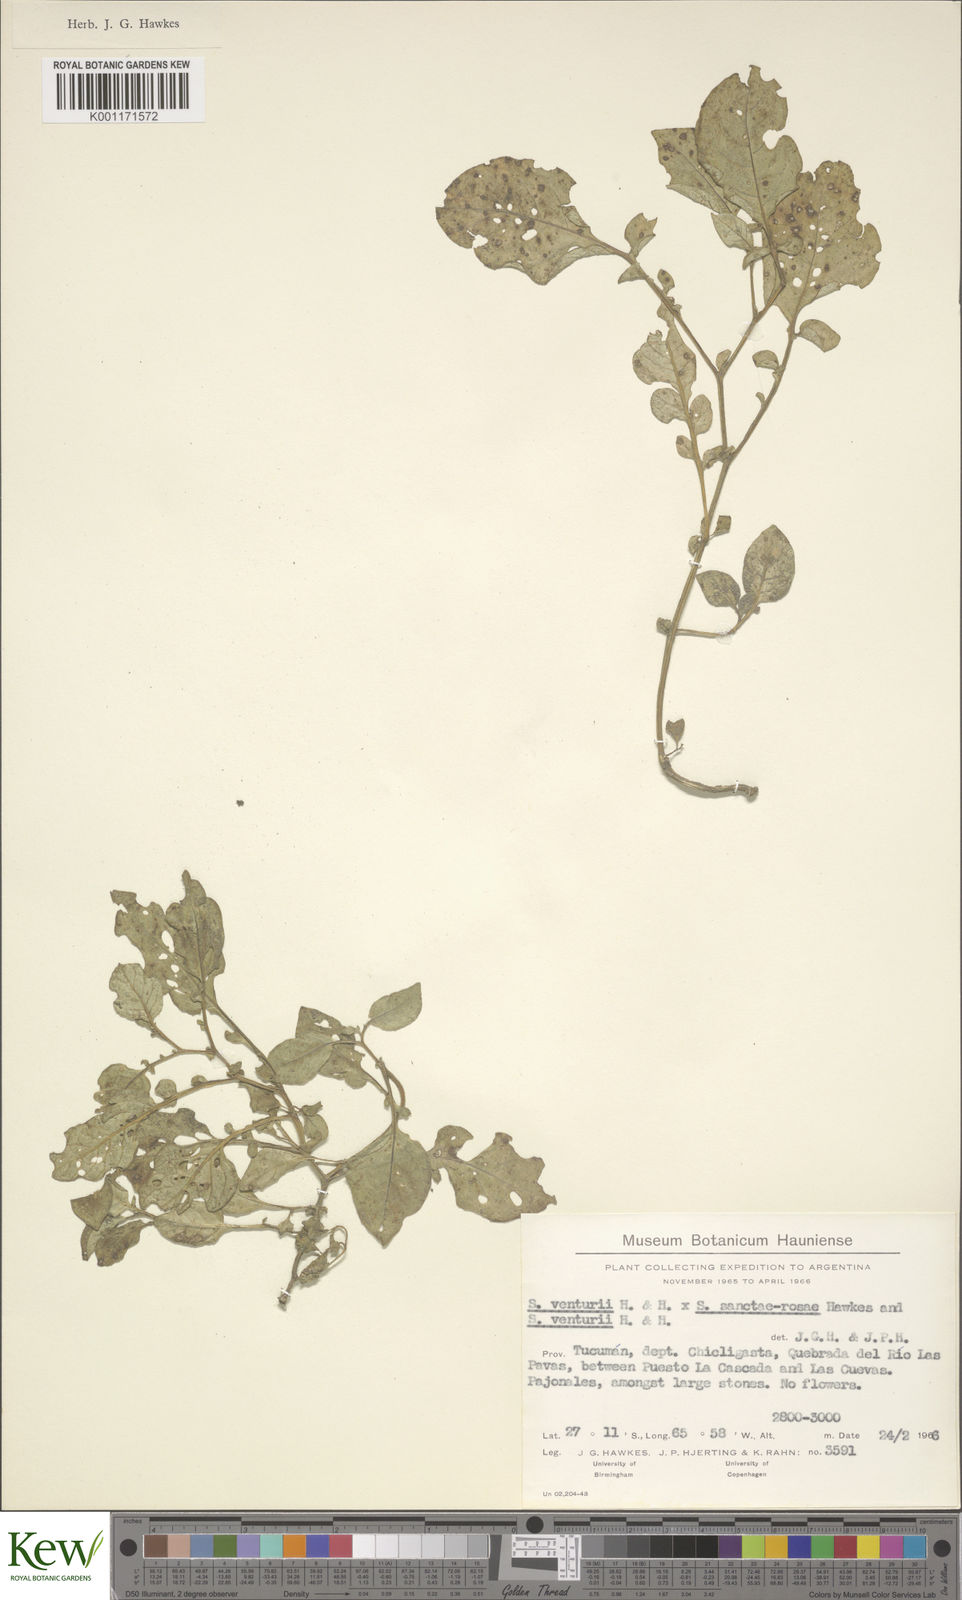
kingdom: Plantae
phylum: Tracheophyta
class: Magnoliopsida
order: Solanales
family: Solanaceae
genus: Solanum
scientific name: Solanum venturii
